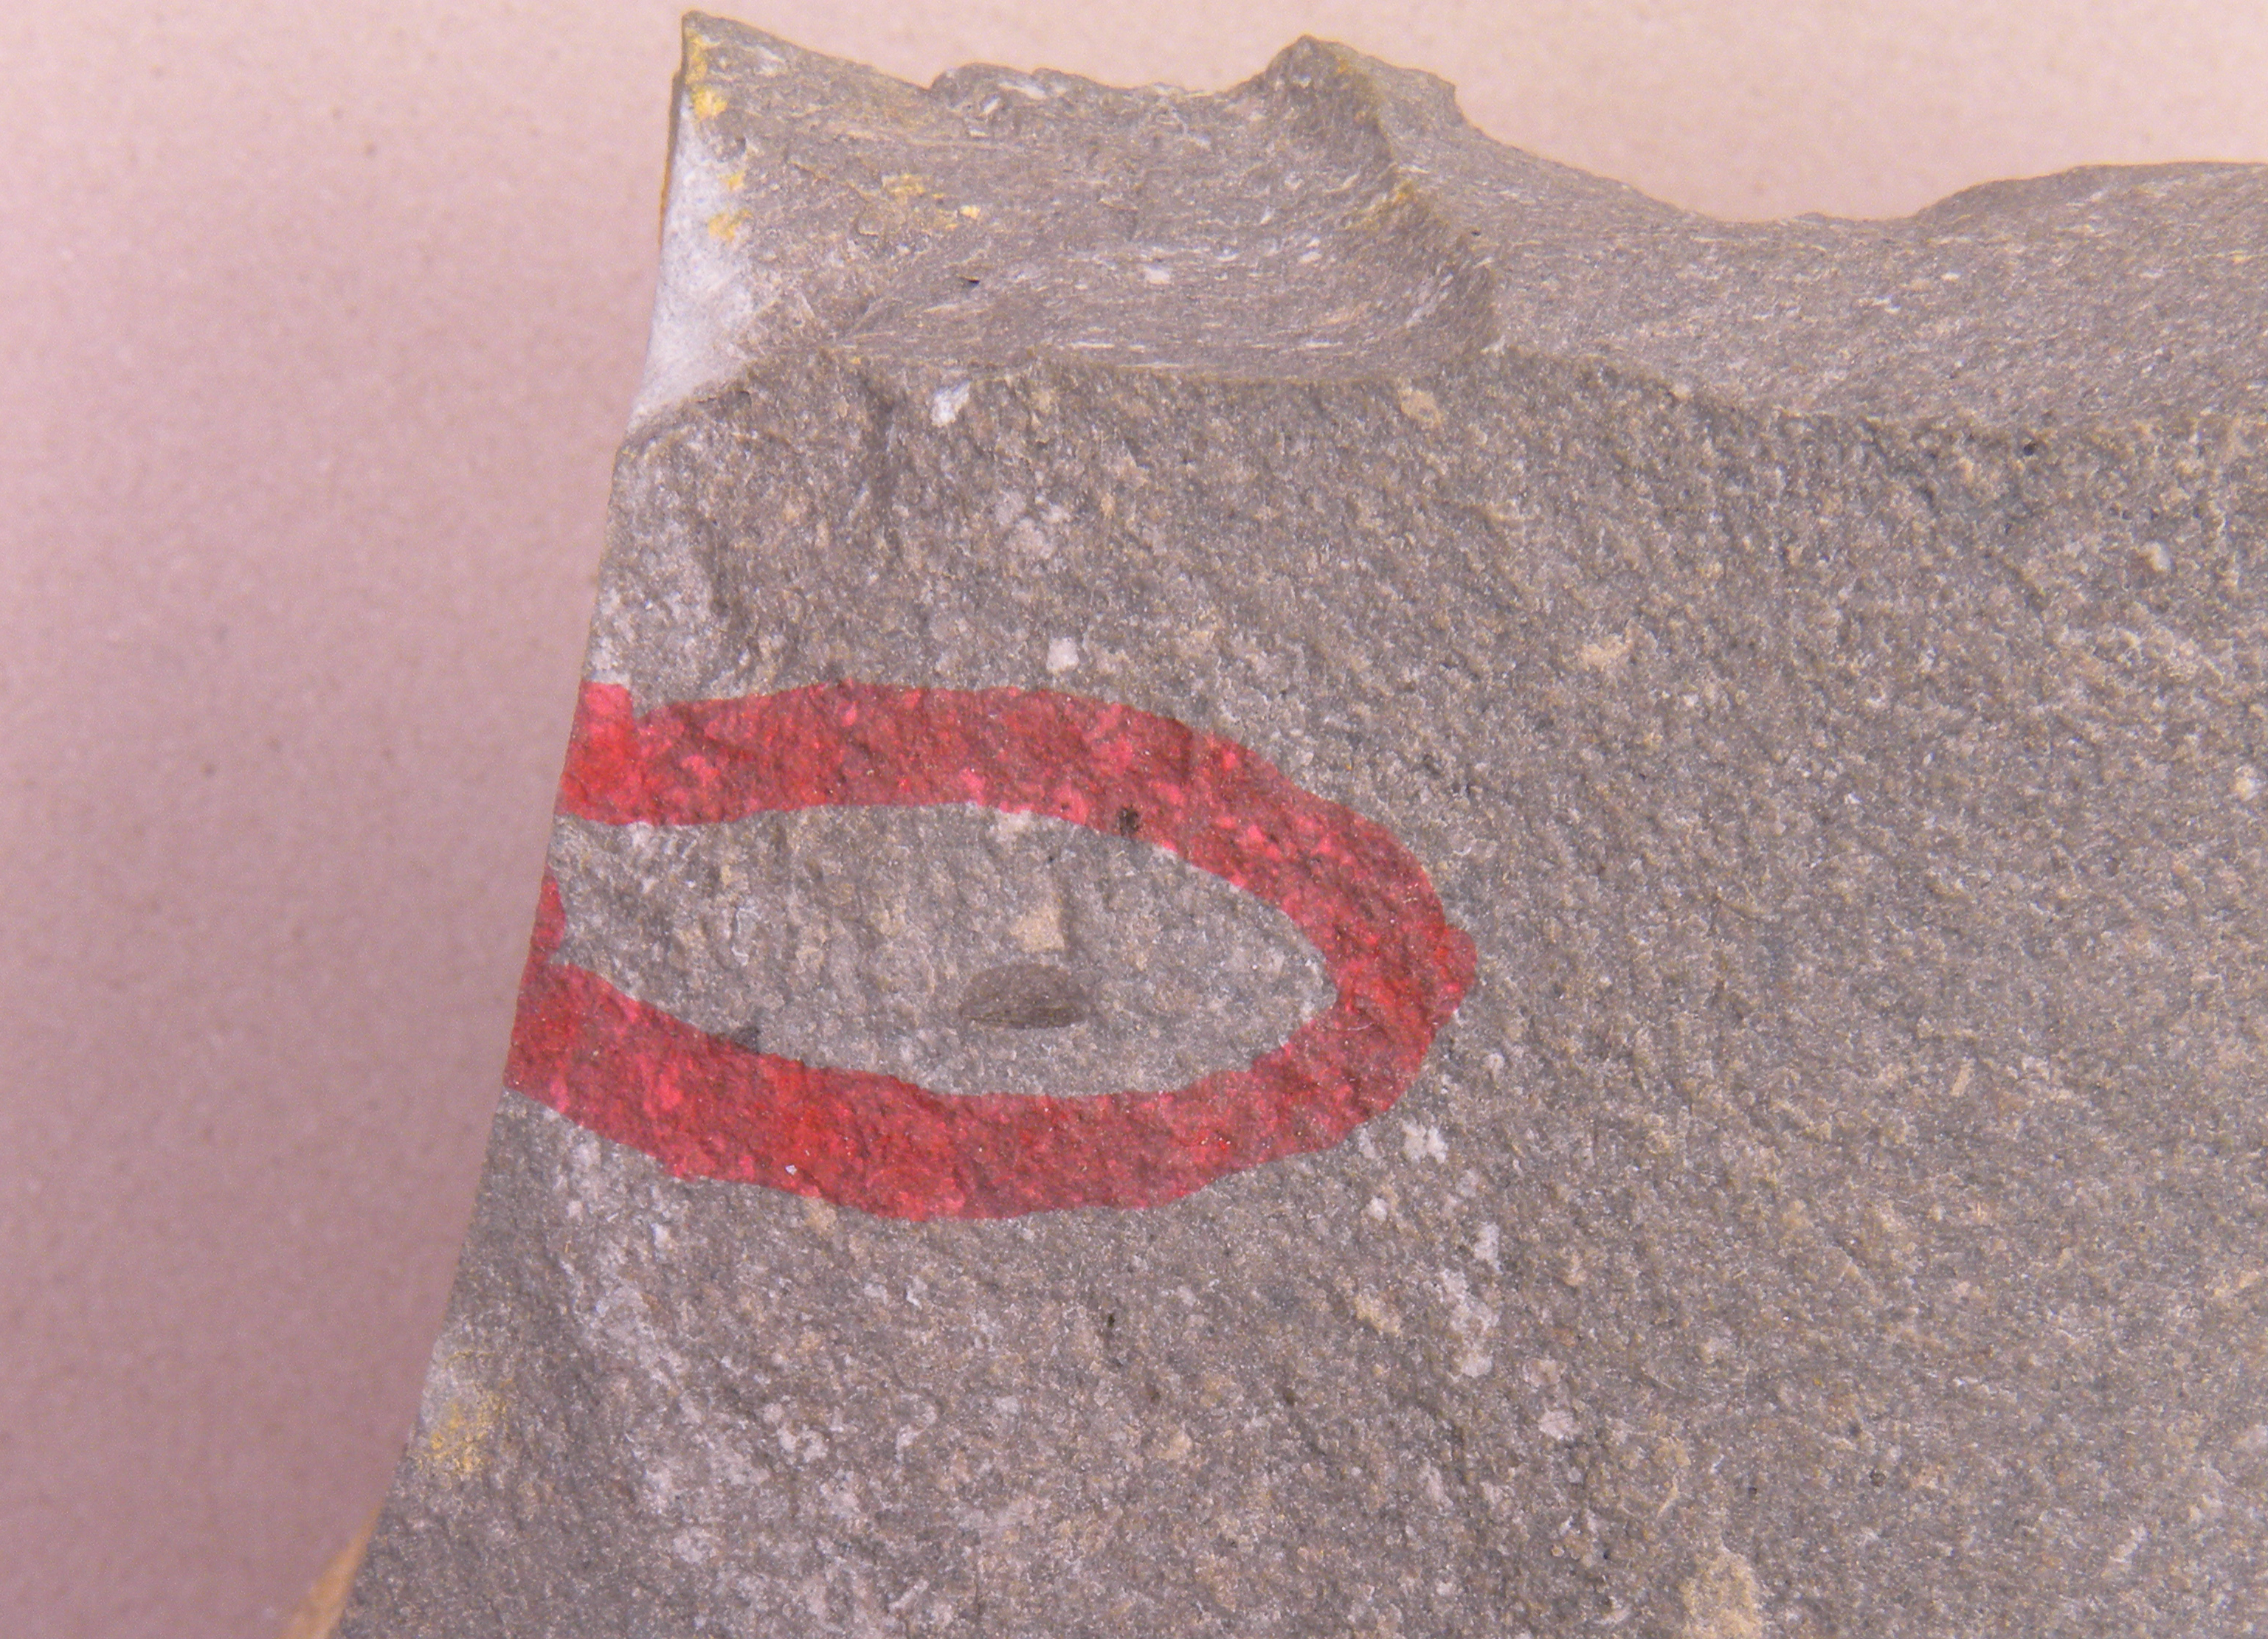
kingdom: Animalia
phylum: Arthropoda
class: Insecta
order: Diptera
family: Chaoboridae
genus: Rhaetomyia
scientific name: Rhaetomyia herrigi
